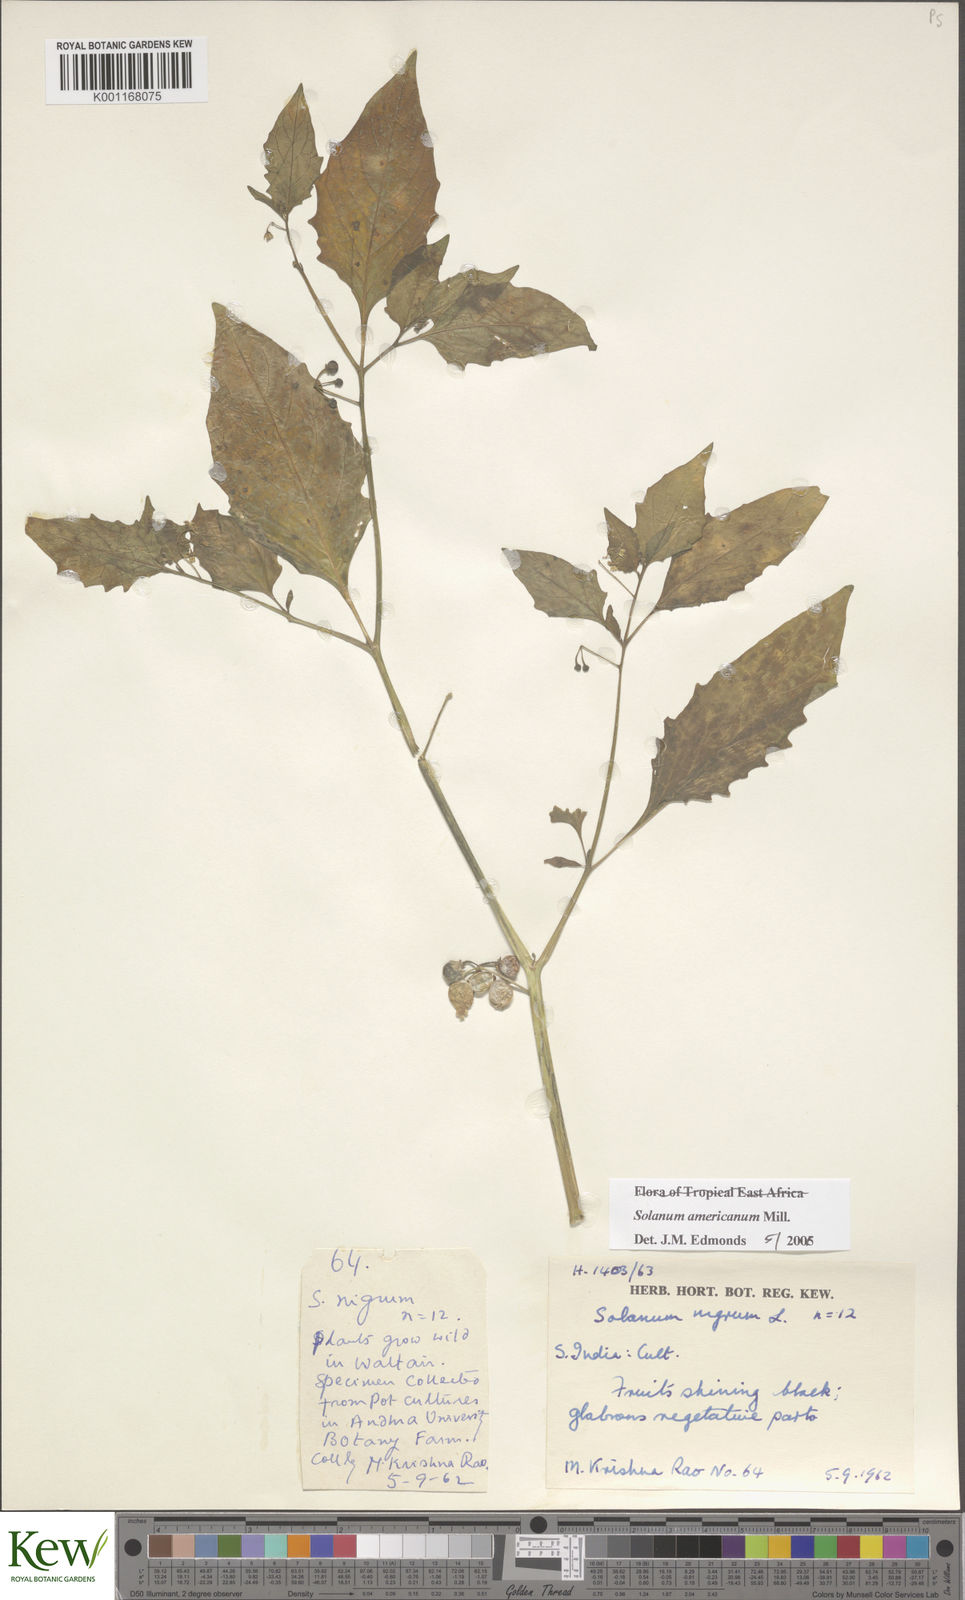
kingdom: Plantae
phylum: Tracheophyta
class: Magnoliopsida
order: Solanales
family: Solanaceae
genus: Solanum
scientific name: Solanum americanum
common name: American black nightshade
